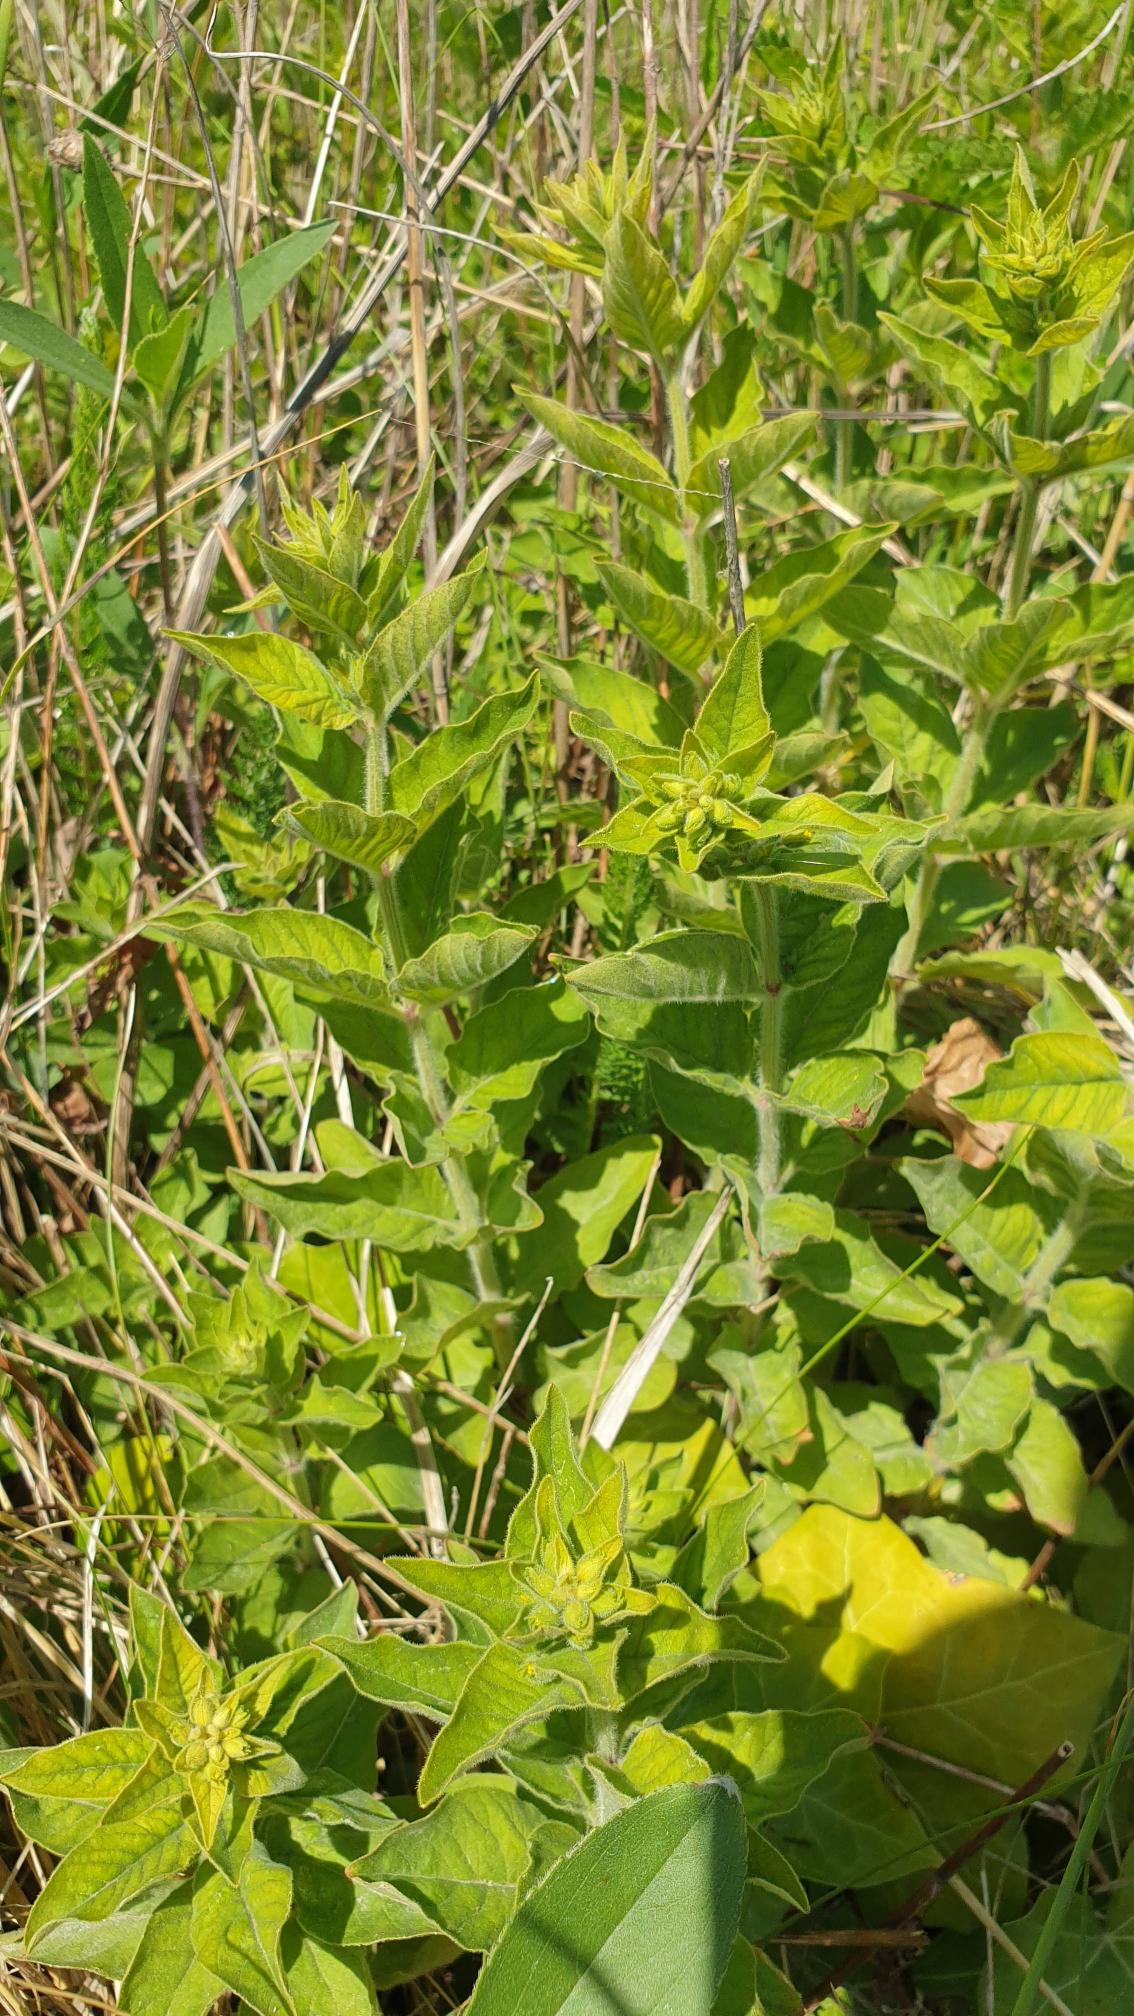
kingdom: Plantae
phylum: Tracheophyta
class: Magnoliopsida
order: Ericales
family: Primulaceae
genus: Lysimachia
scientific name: Lysimachia punctata
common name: Prikbladet fredløs
